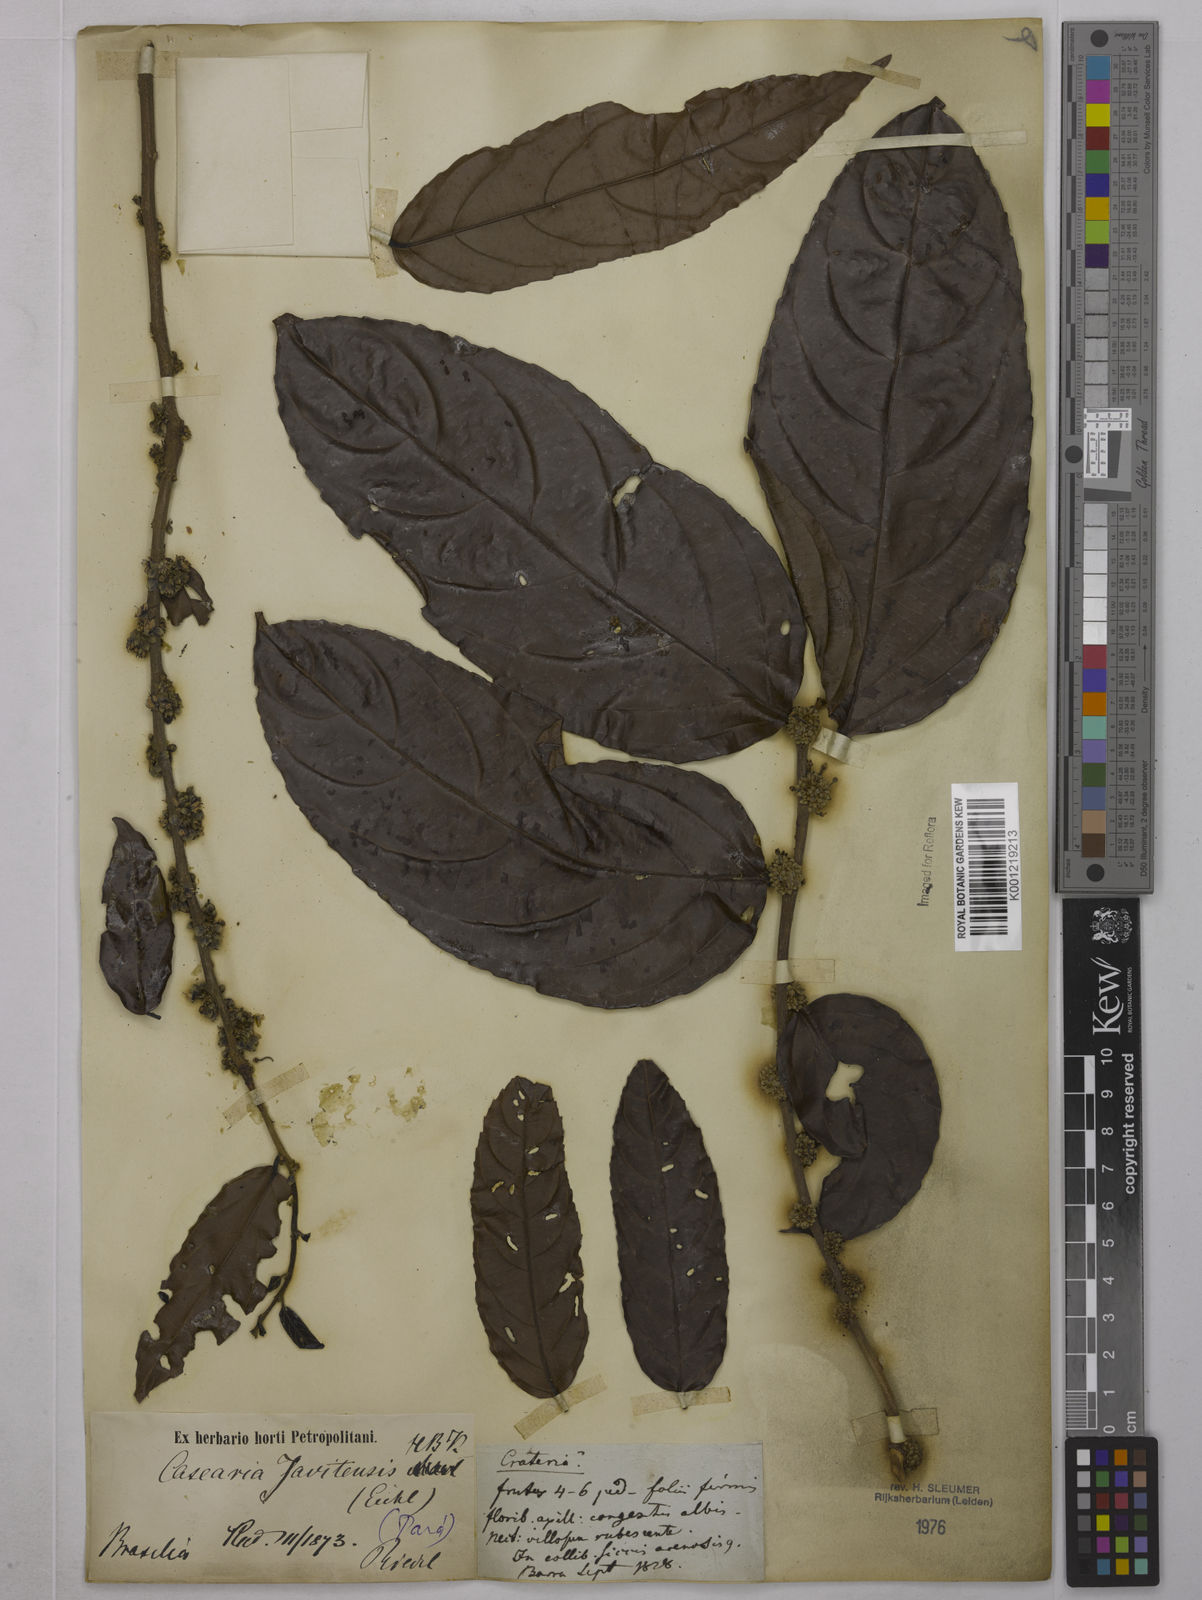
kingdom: Plantae
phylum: Tracheophyta
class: Magnoliopsida
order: Malpighiales
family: Salicaceae
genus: Piparea
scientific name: Piparea multiflora
